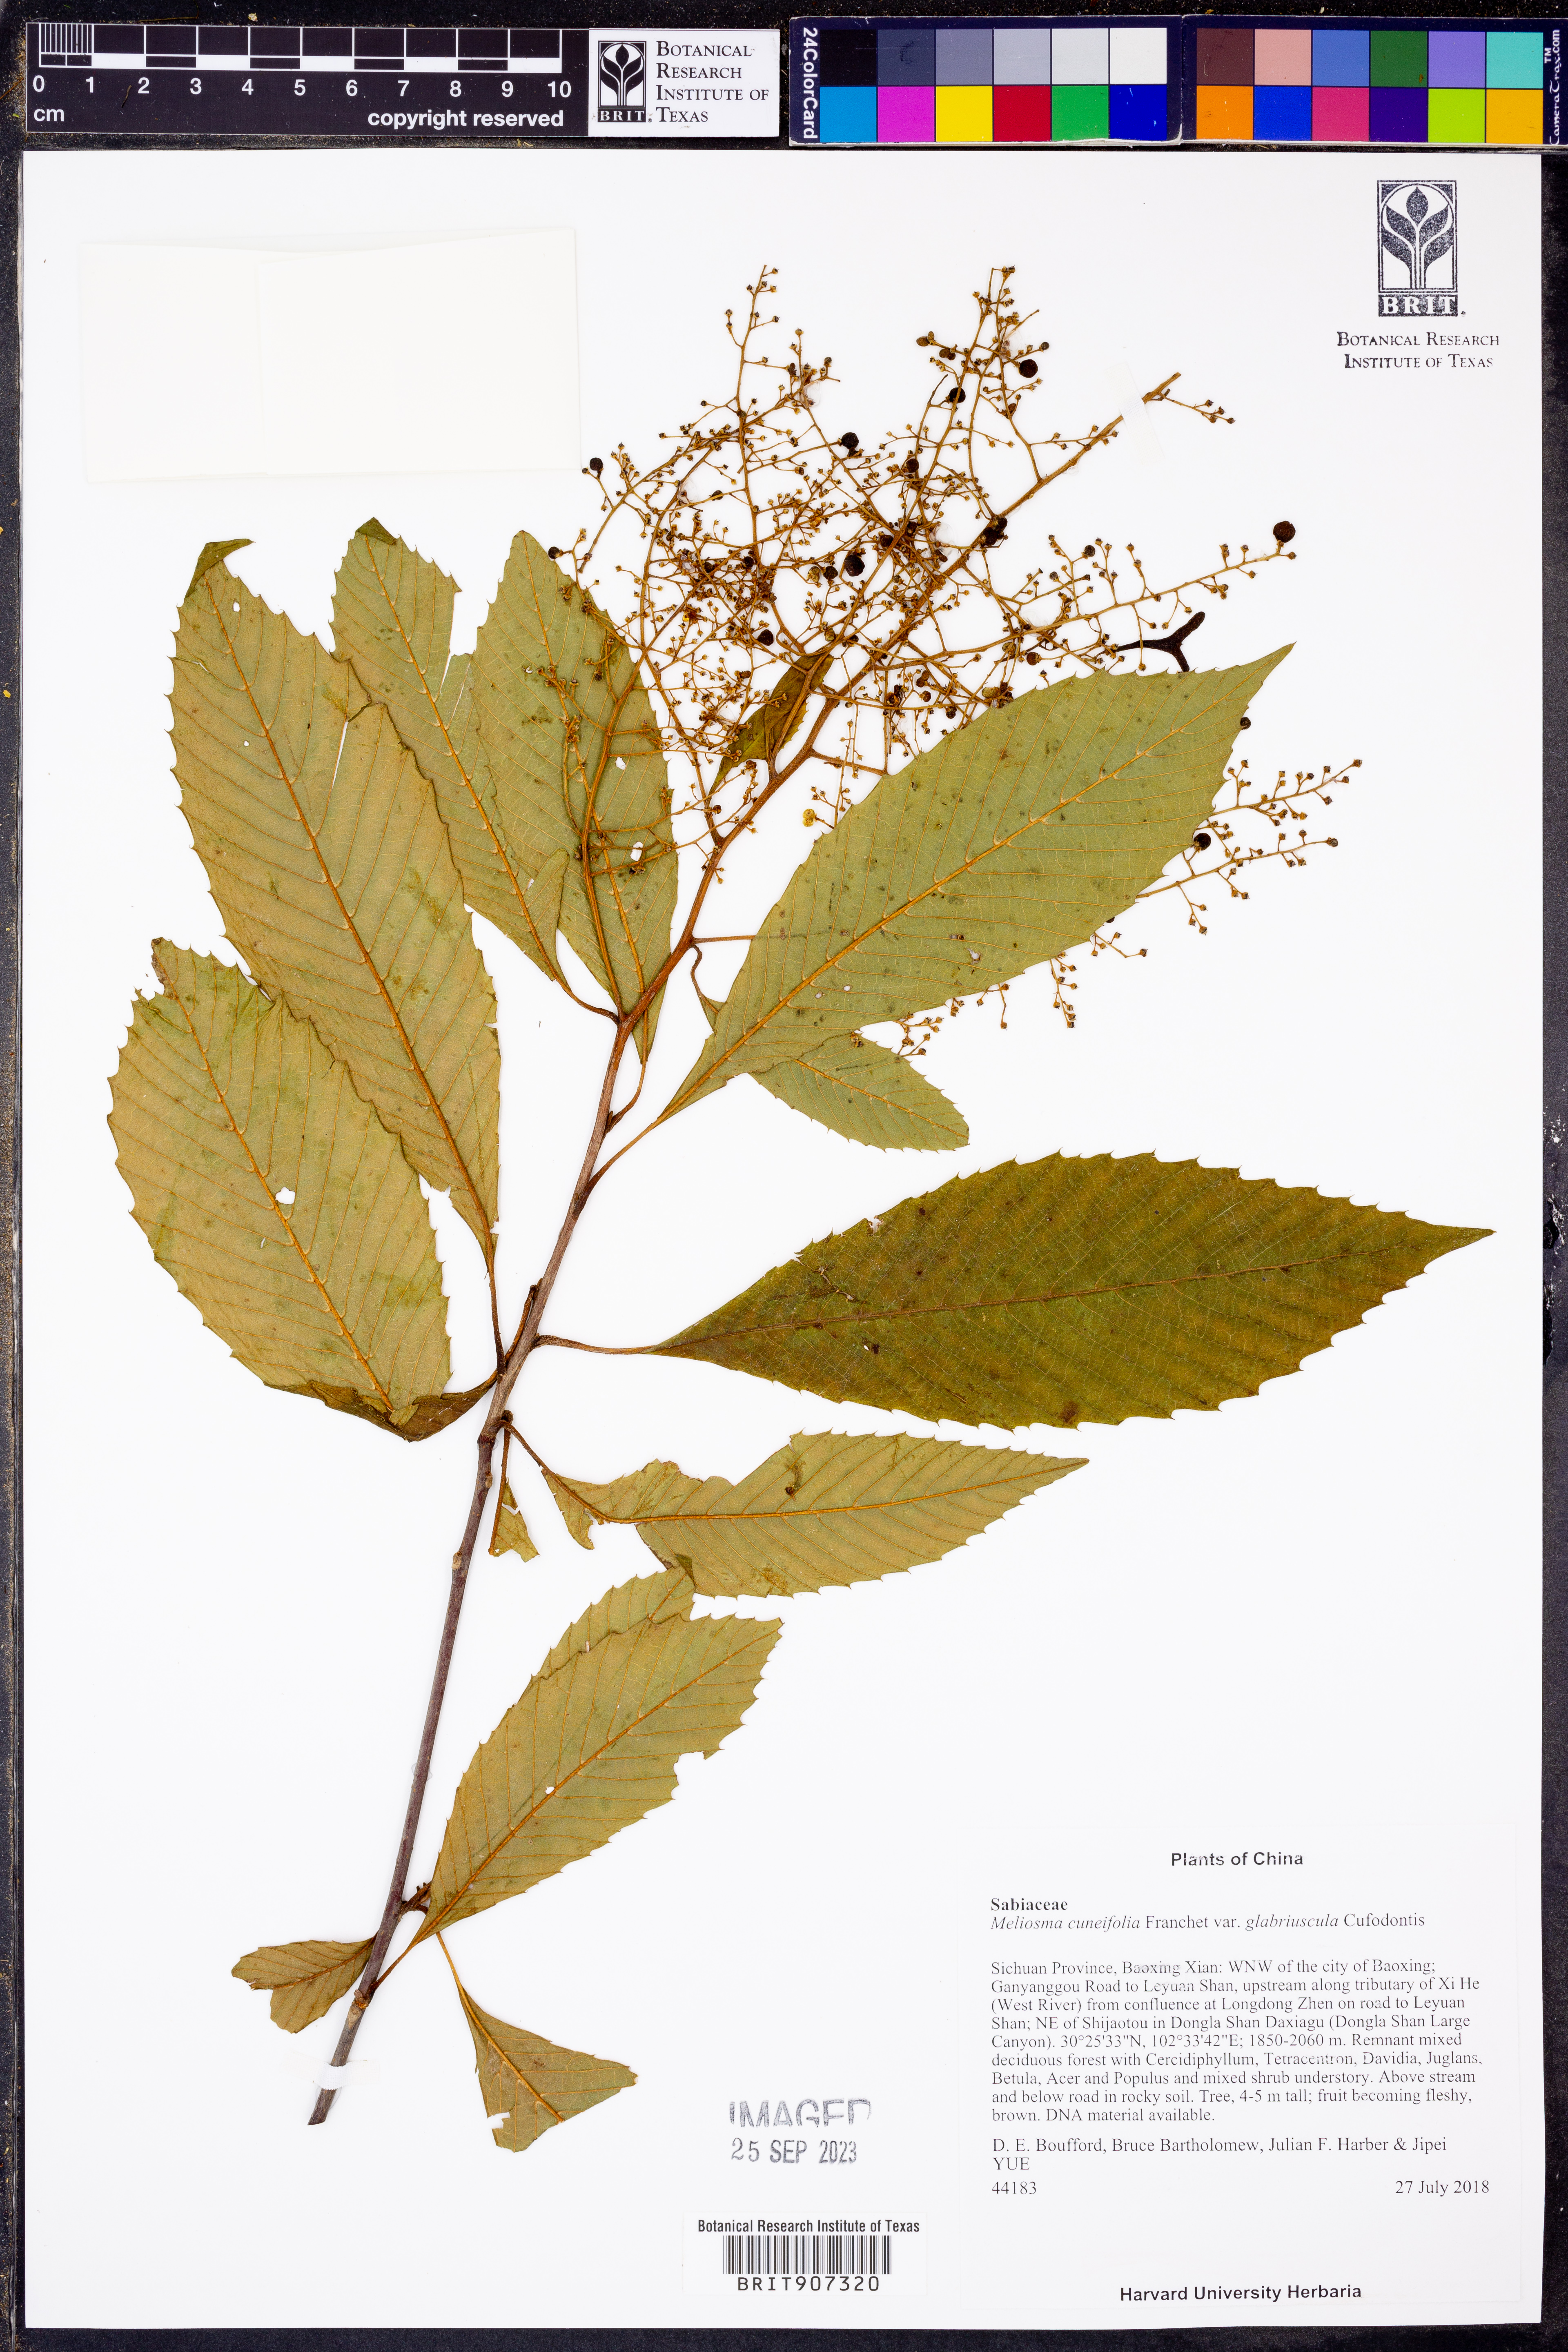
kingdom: Plantae
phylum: Tracheophyta
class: Magnoliopsida
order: Proteales
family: Sabiaceae
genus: Meliosma
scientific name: Meliosma cuneifolia
